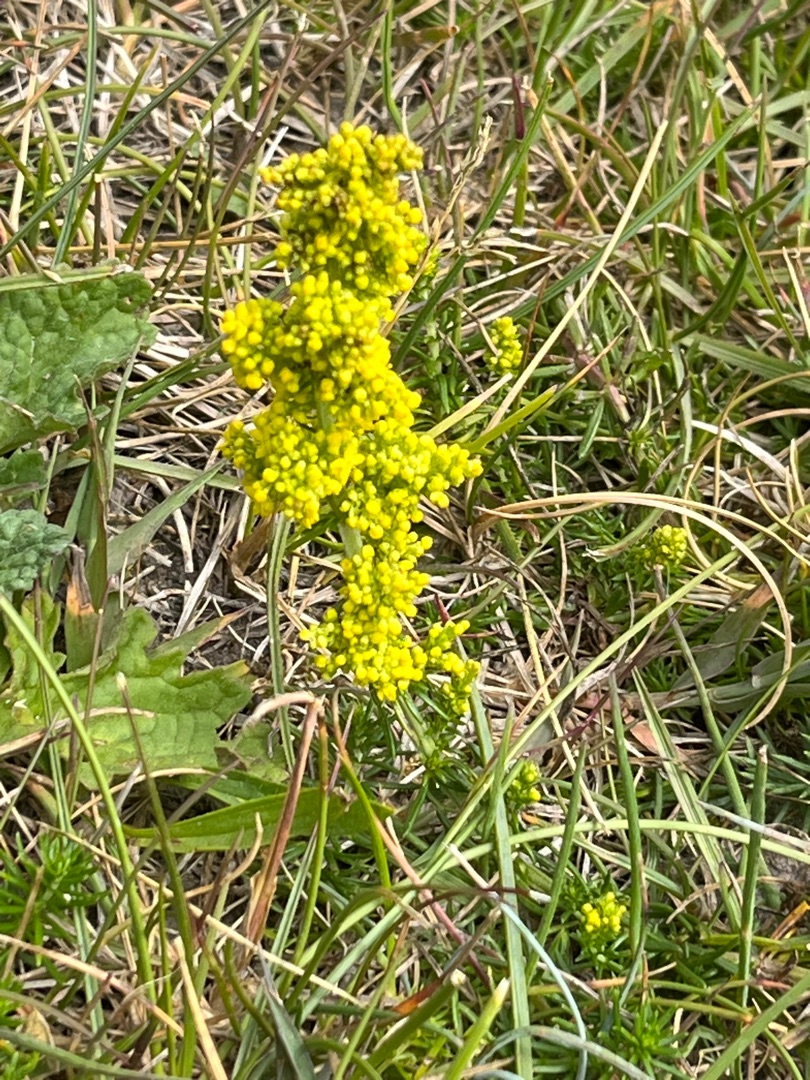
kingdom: Plantae
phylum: Tracheophyta
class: Magnoliopsida
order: Gentianales
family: Rubiaceae
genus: Galium
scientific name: Galium verum
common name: Gul snerre
